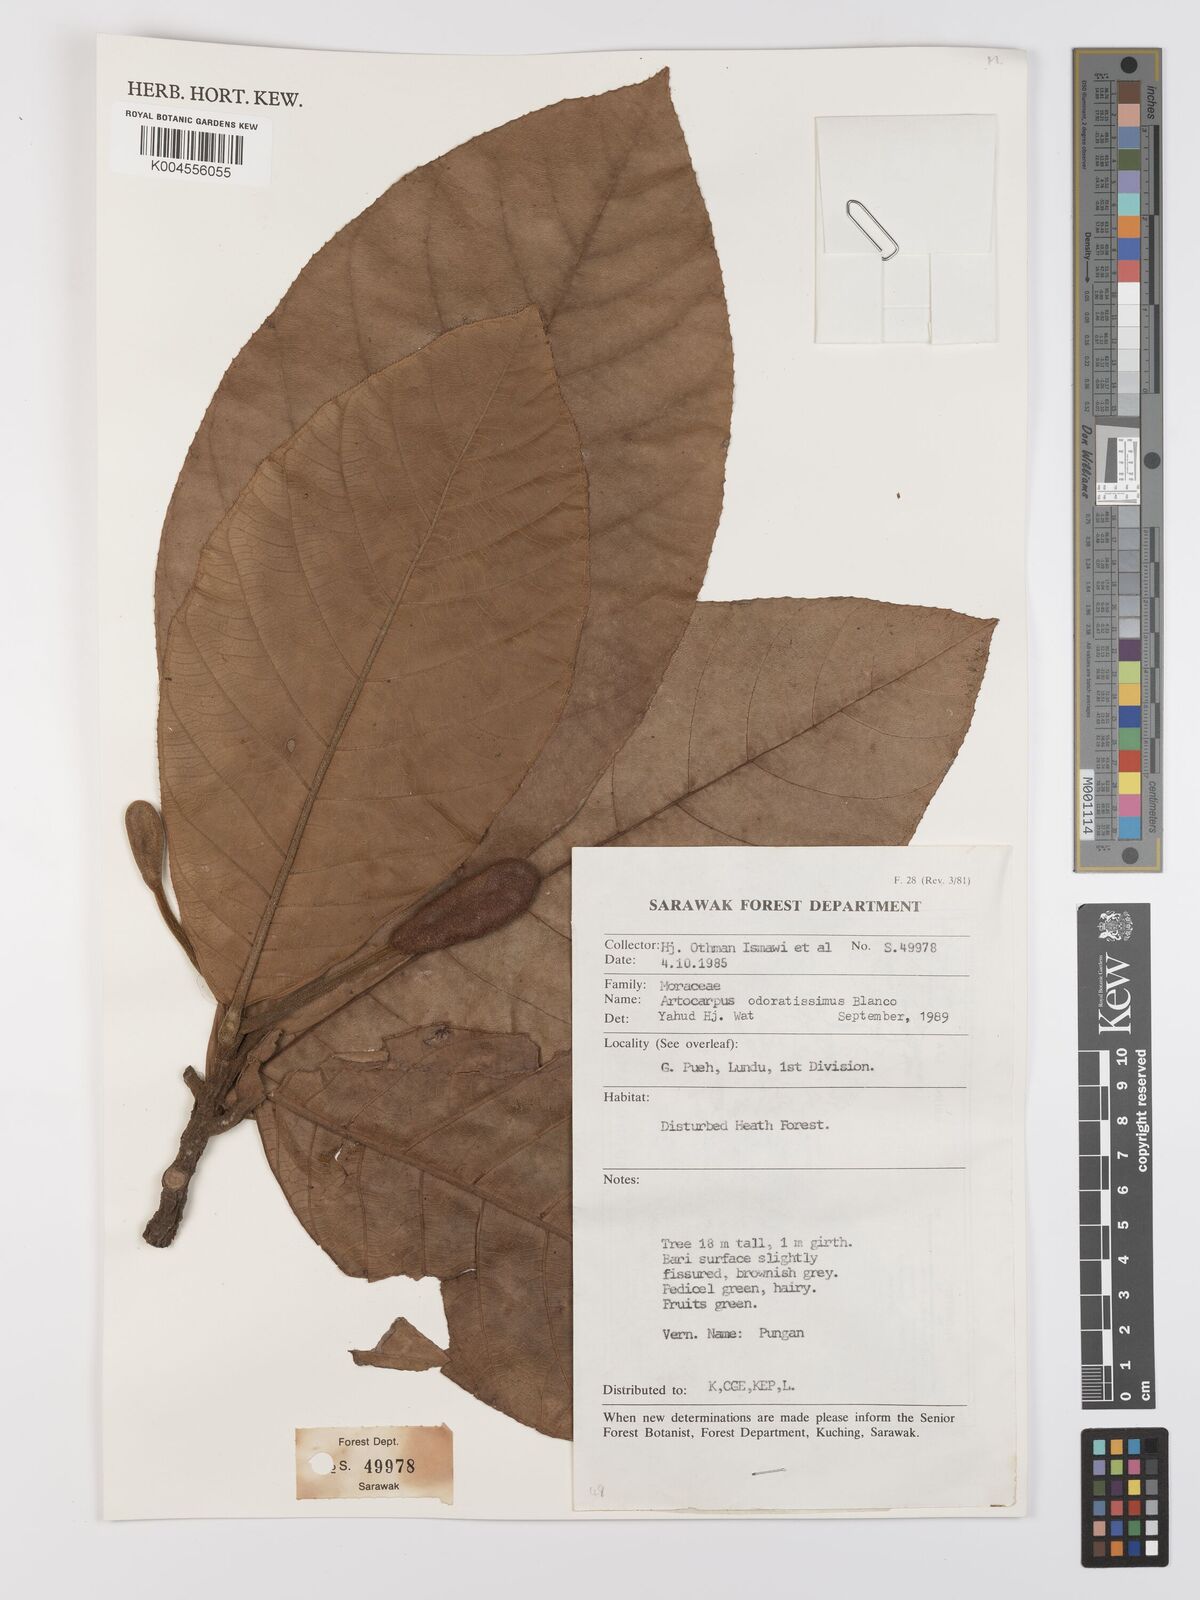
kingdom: Plantae
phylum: Tracheophyta
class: Magnoliopsida
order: Rosales
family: Moraceae
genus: Artocarpus
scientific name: Artocarpus odoratissimus
